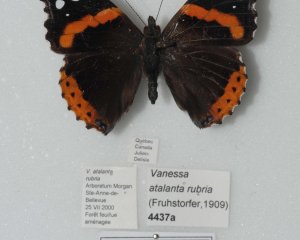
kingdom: Animalia
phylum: Arthropoda
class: Insecta
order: Lepidoptera
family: Nymphalidae
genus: Vanessa
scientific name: Vanessa atalanta
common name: Red Admiral
